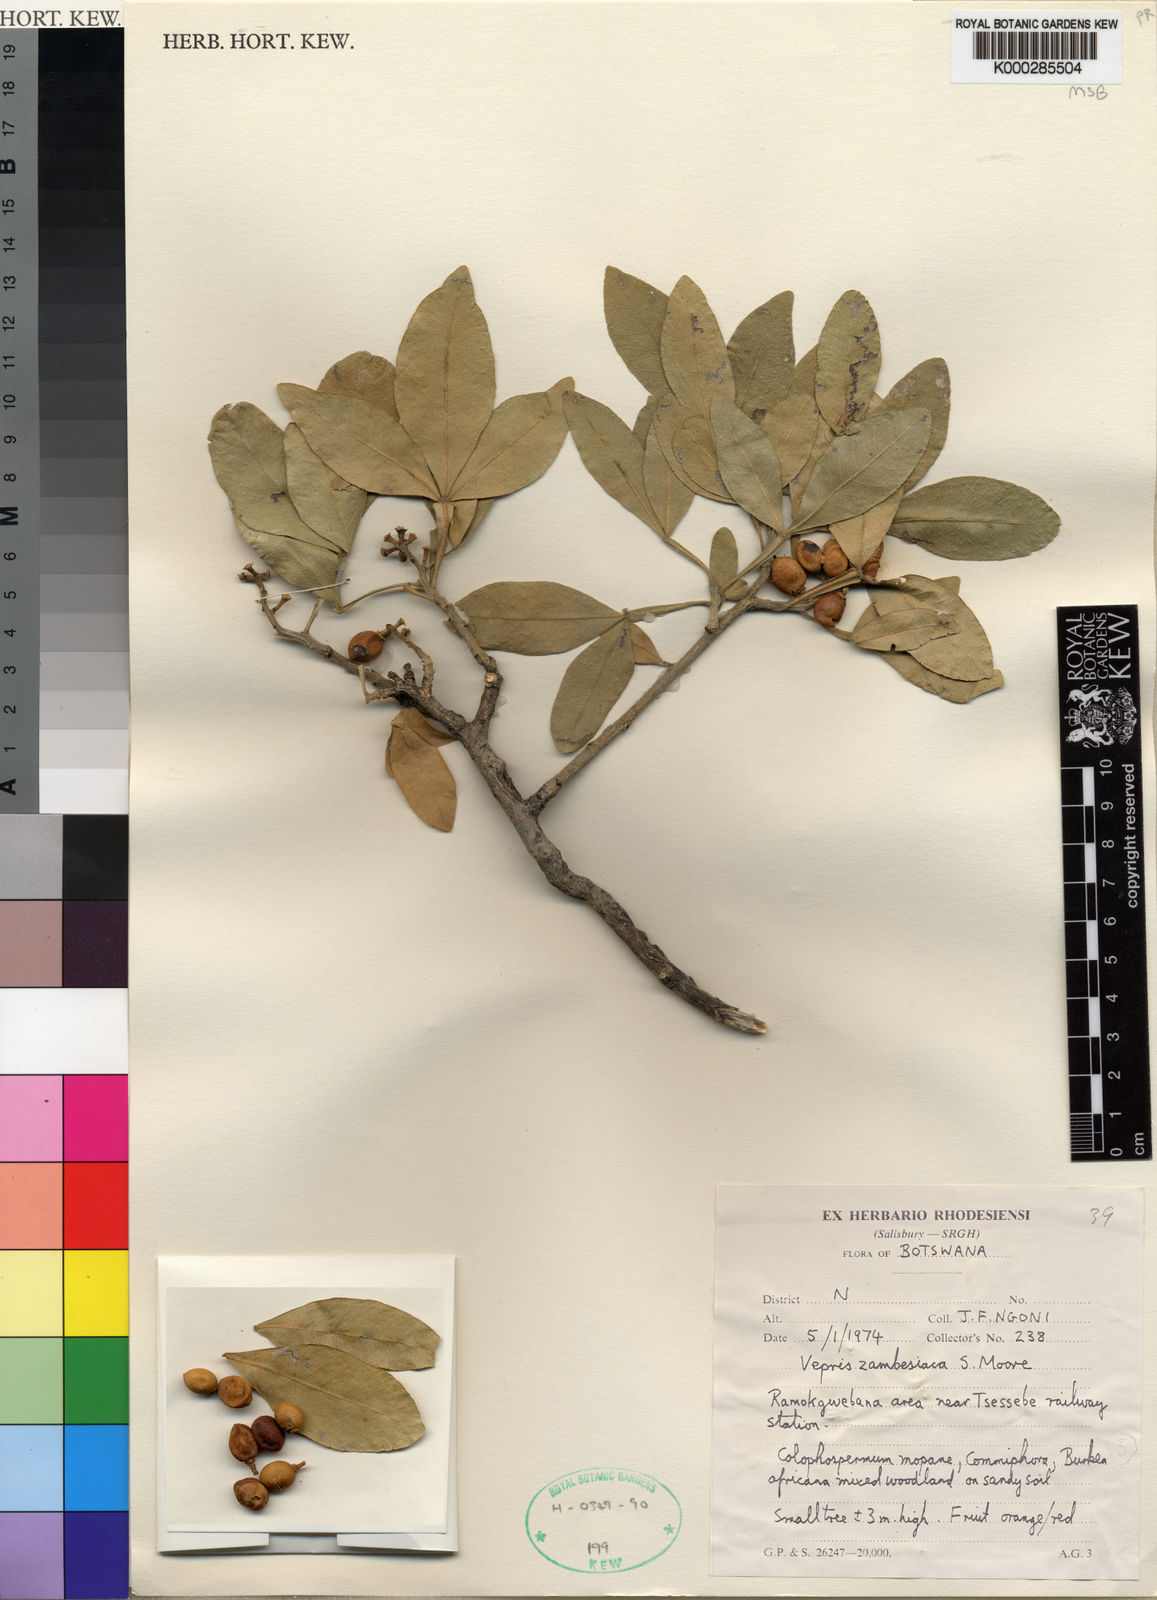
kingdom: Plantae
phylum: Tracheophyta
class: Magnoliopsida
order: Sapindales
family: Rutaceae
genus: Vepris
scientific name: Vepris zambesiaca
